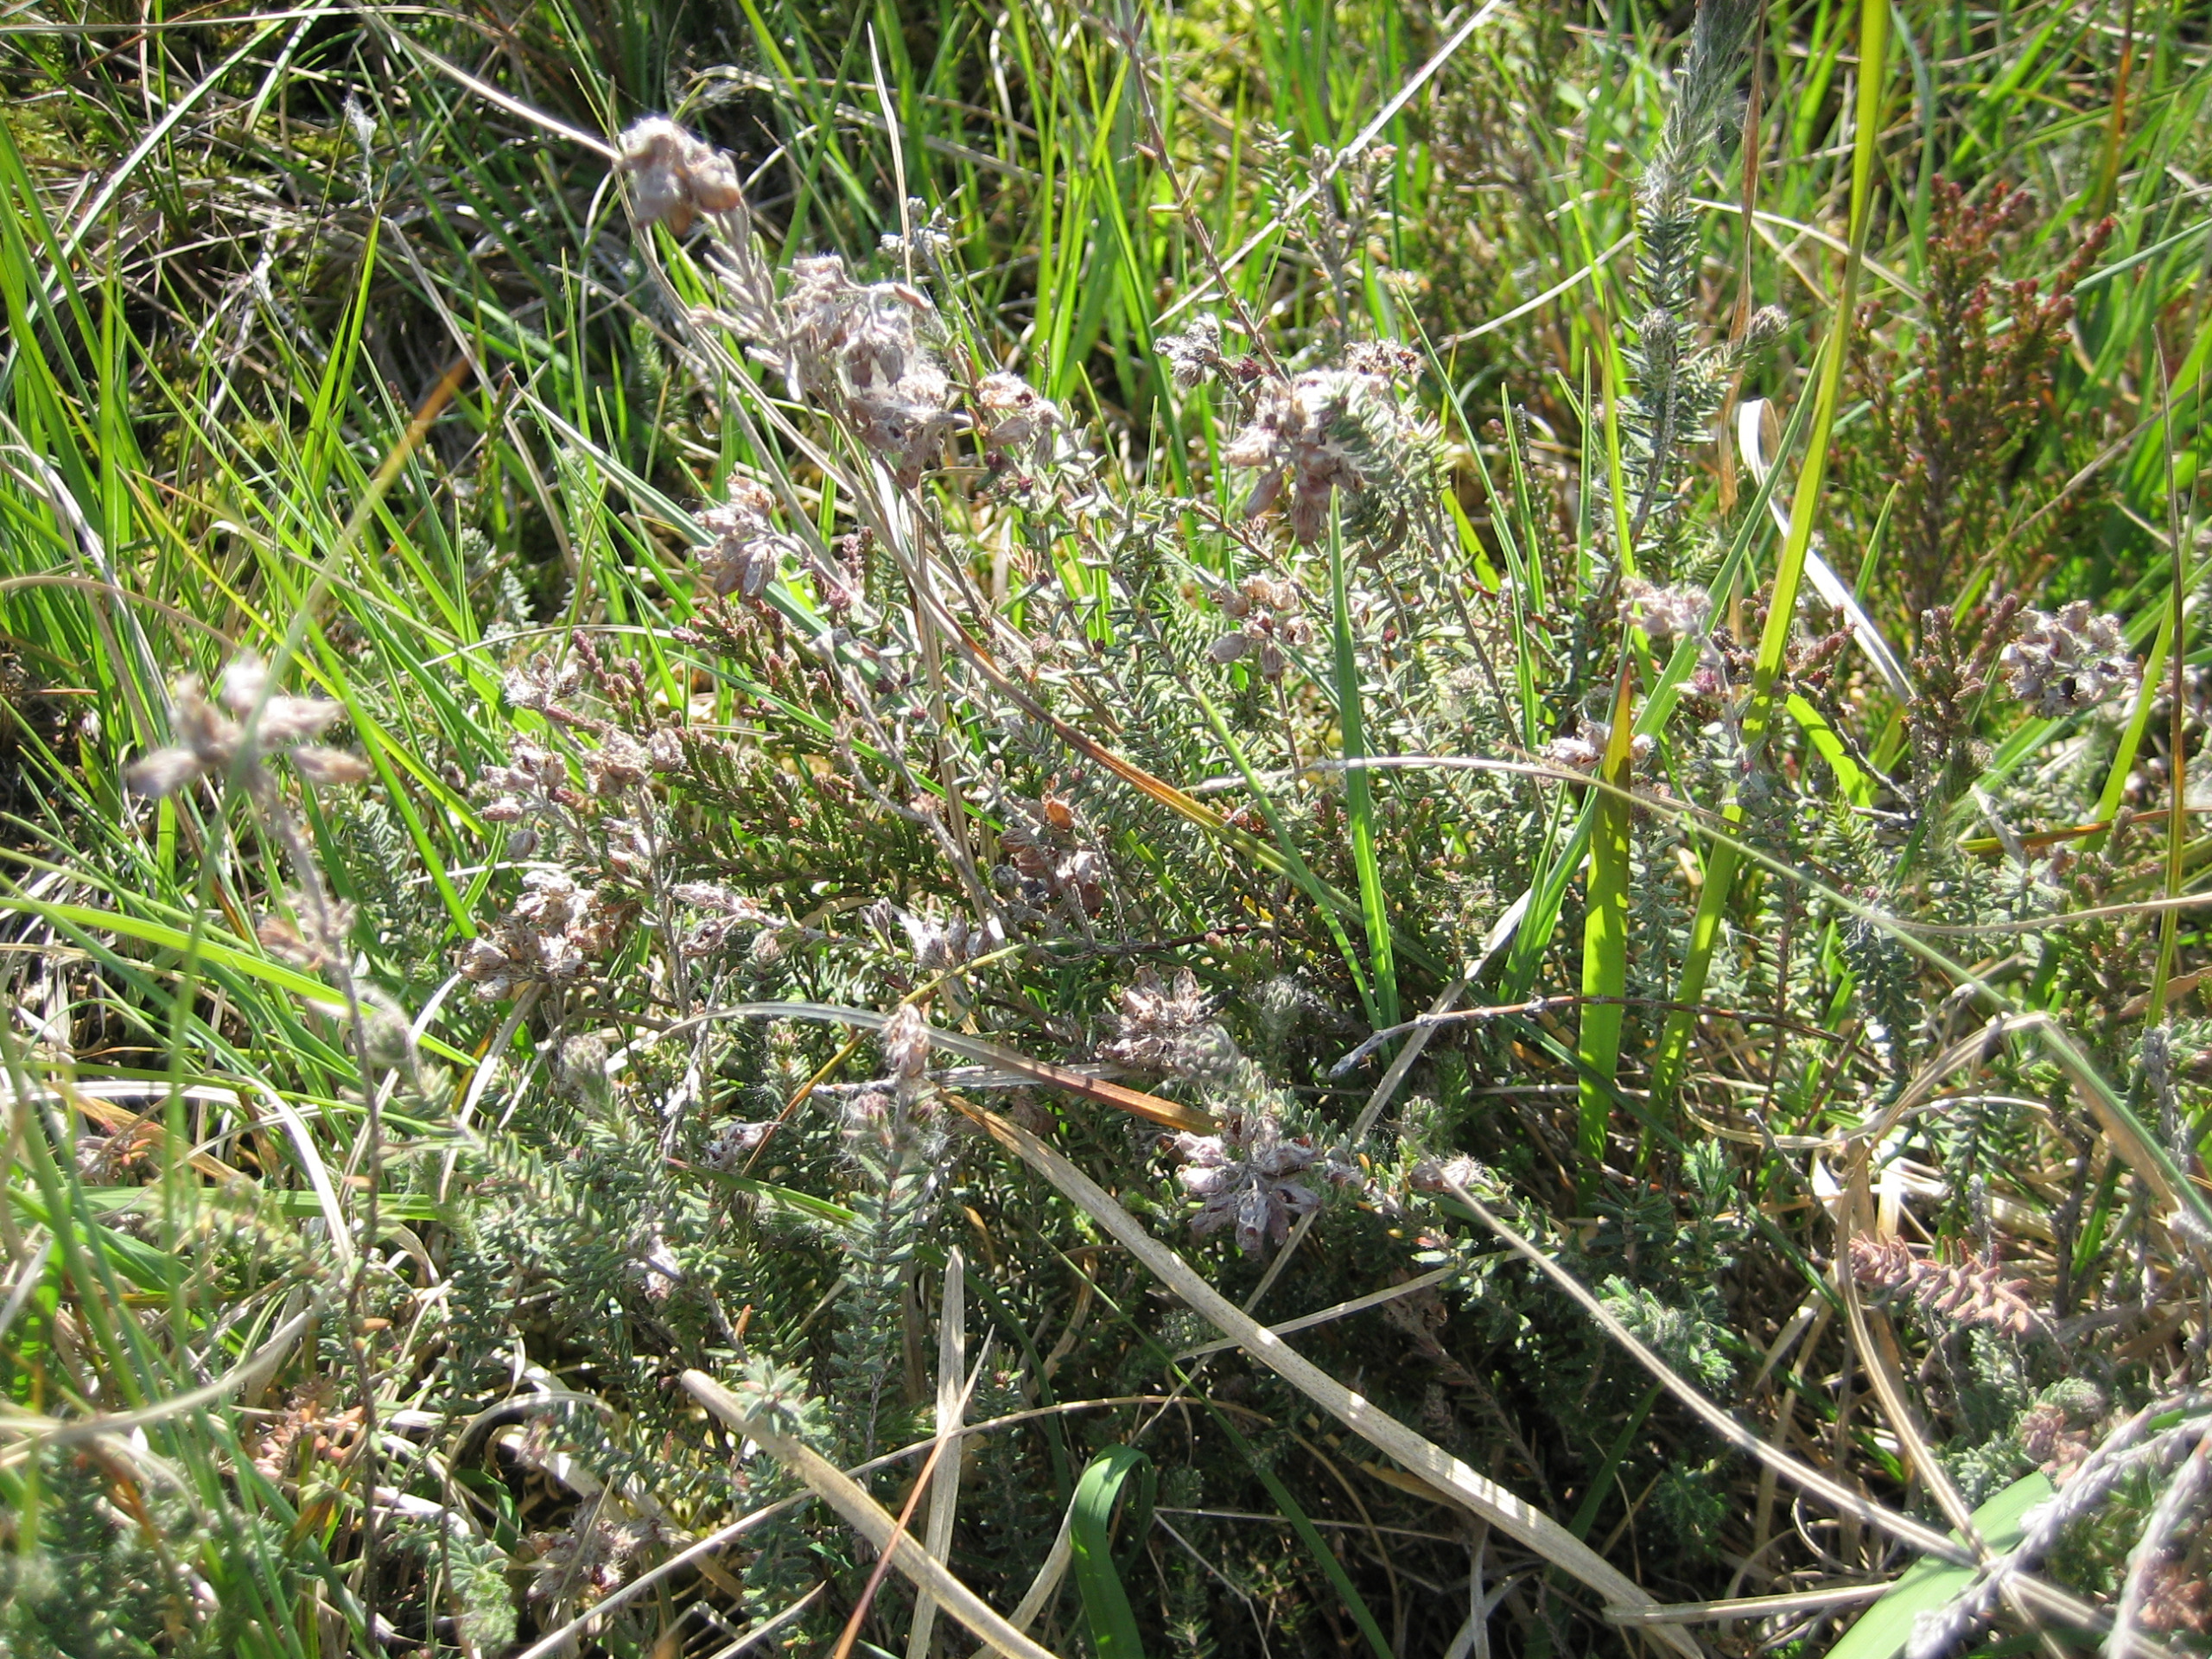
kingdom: Plantae
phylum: Tracheophyta
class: Magnoliopsida
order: Ericales
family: Ericaceae
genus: Erica
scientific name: Erica tetralix
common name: Klokkelyng
